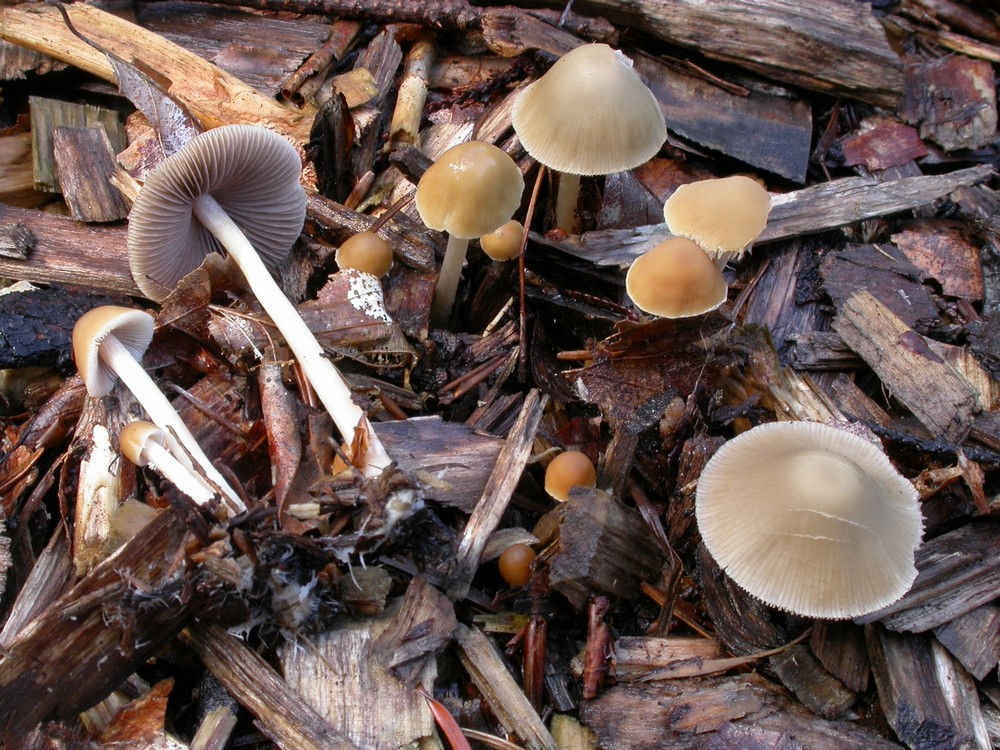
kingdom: Fungi
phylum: Basidiomycota
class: Agaricomycetes
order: Agaricales
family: Psathyrellaceae
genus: Psathyrella
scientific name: Psathyrella pseudogracilis
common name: slank mørkhat
